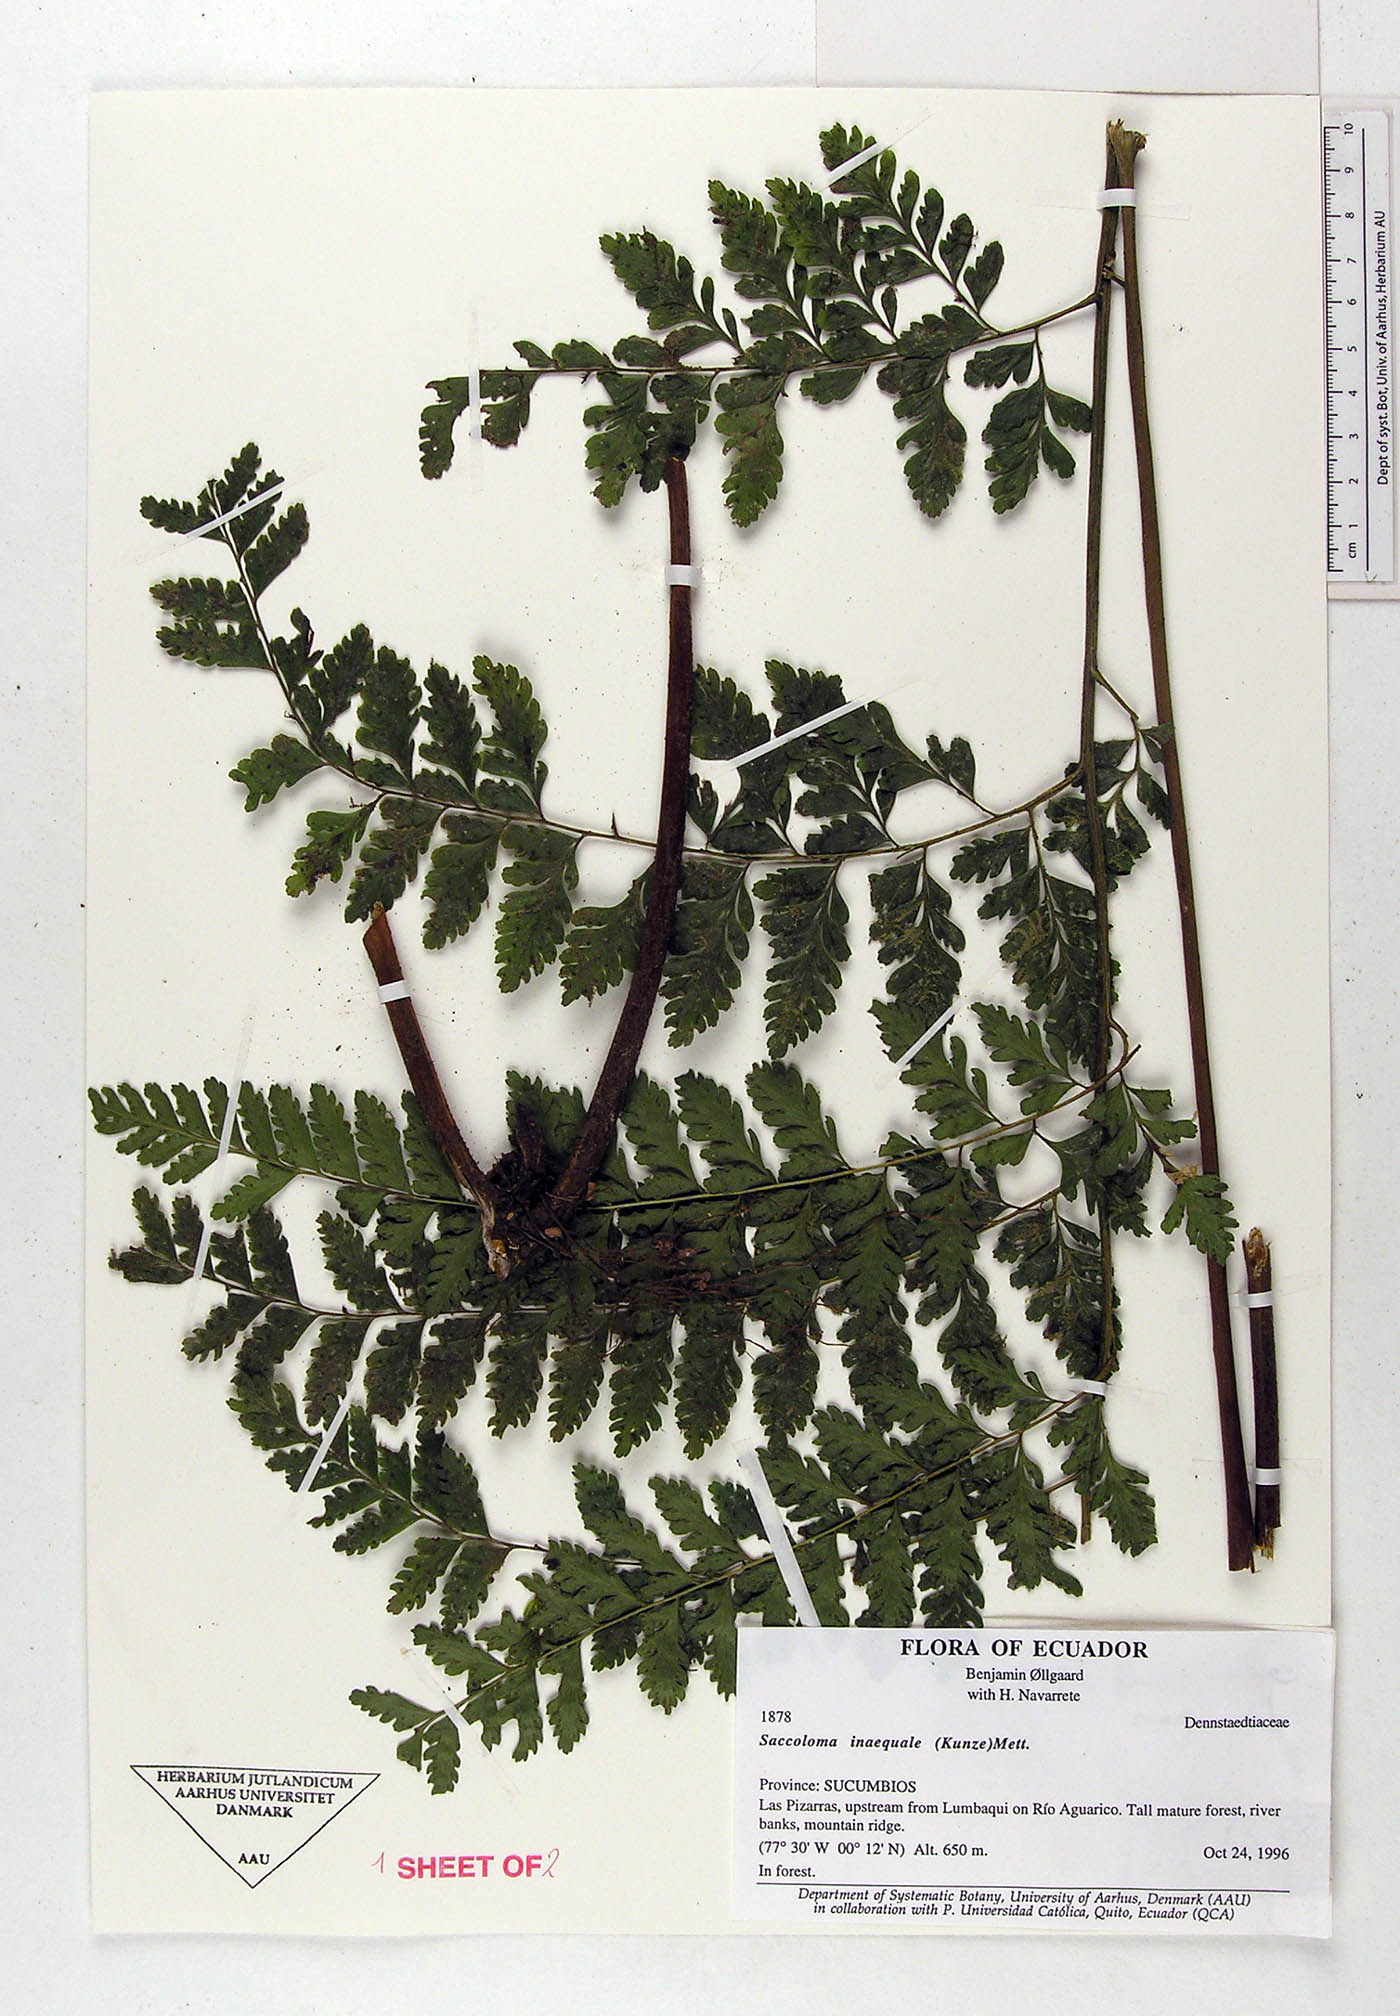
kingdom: Plantae
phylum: Tracheophyta
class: Polypodiopsida
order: Polypodiales
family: Saccolomataceae
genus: Saccoloma
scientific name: Saccoloma inaequale
